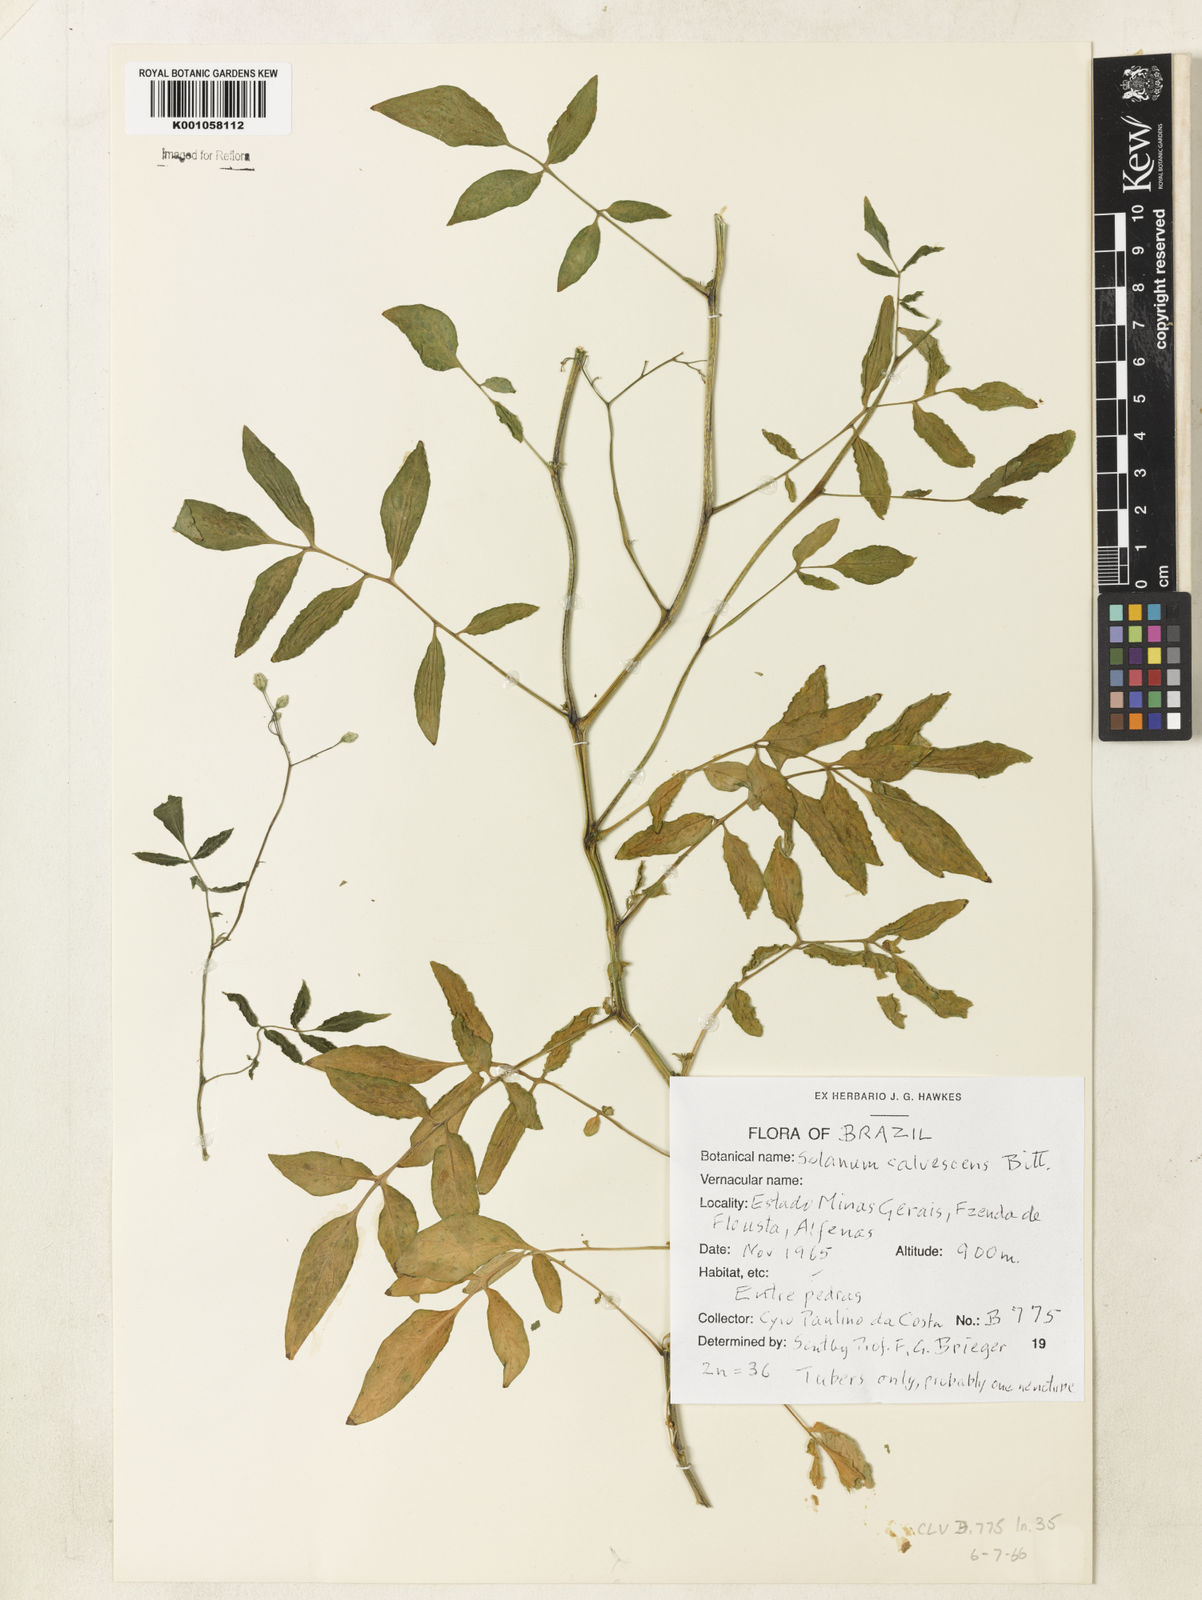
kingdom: Plantae
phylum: Tracheophyta
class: Magnoliopsida
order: Solanales
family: Solanaceae
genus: Solanum
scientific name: Solanum chacoense
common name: Chaco potato
